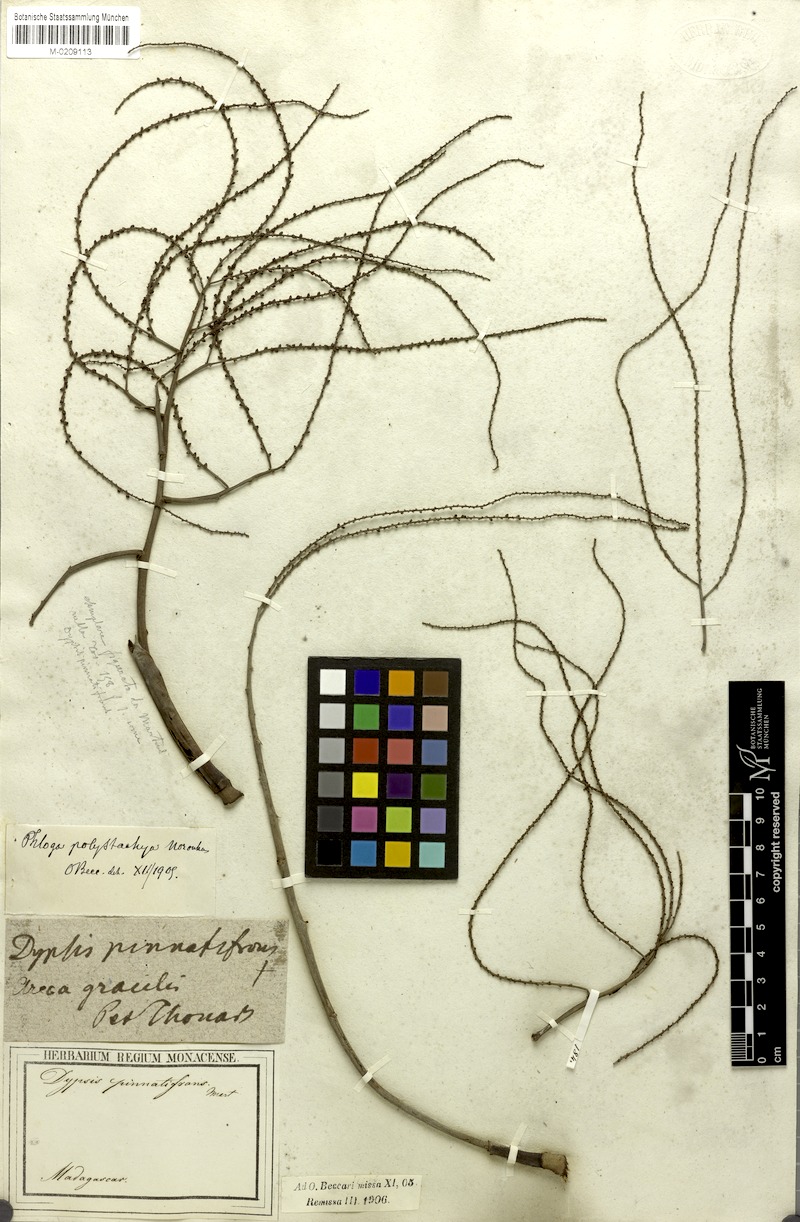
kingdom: Plantae
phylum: Tracheophyta
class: Liliopsida
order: Arecales
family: Arecaceae
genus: Dypsis
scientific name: Dypsis nodifera
